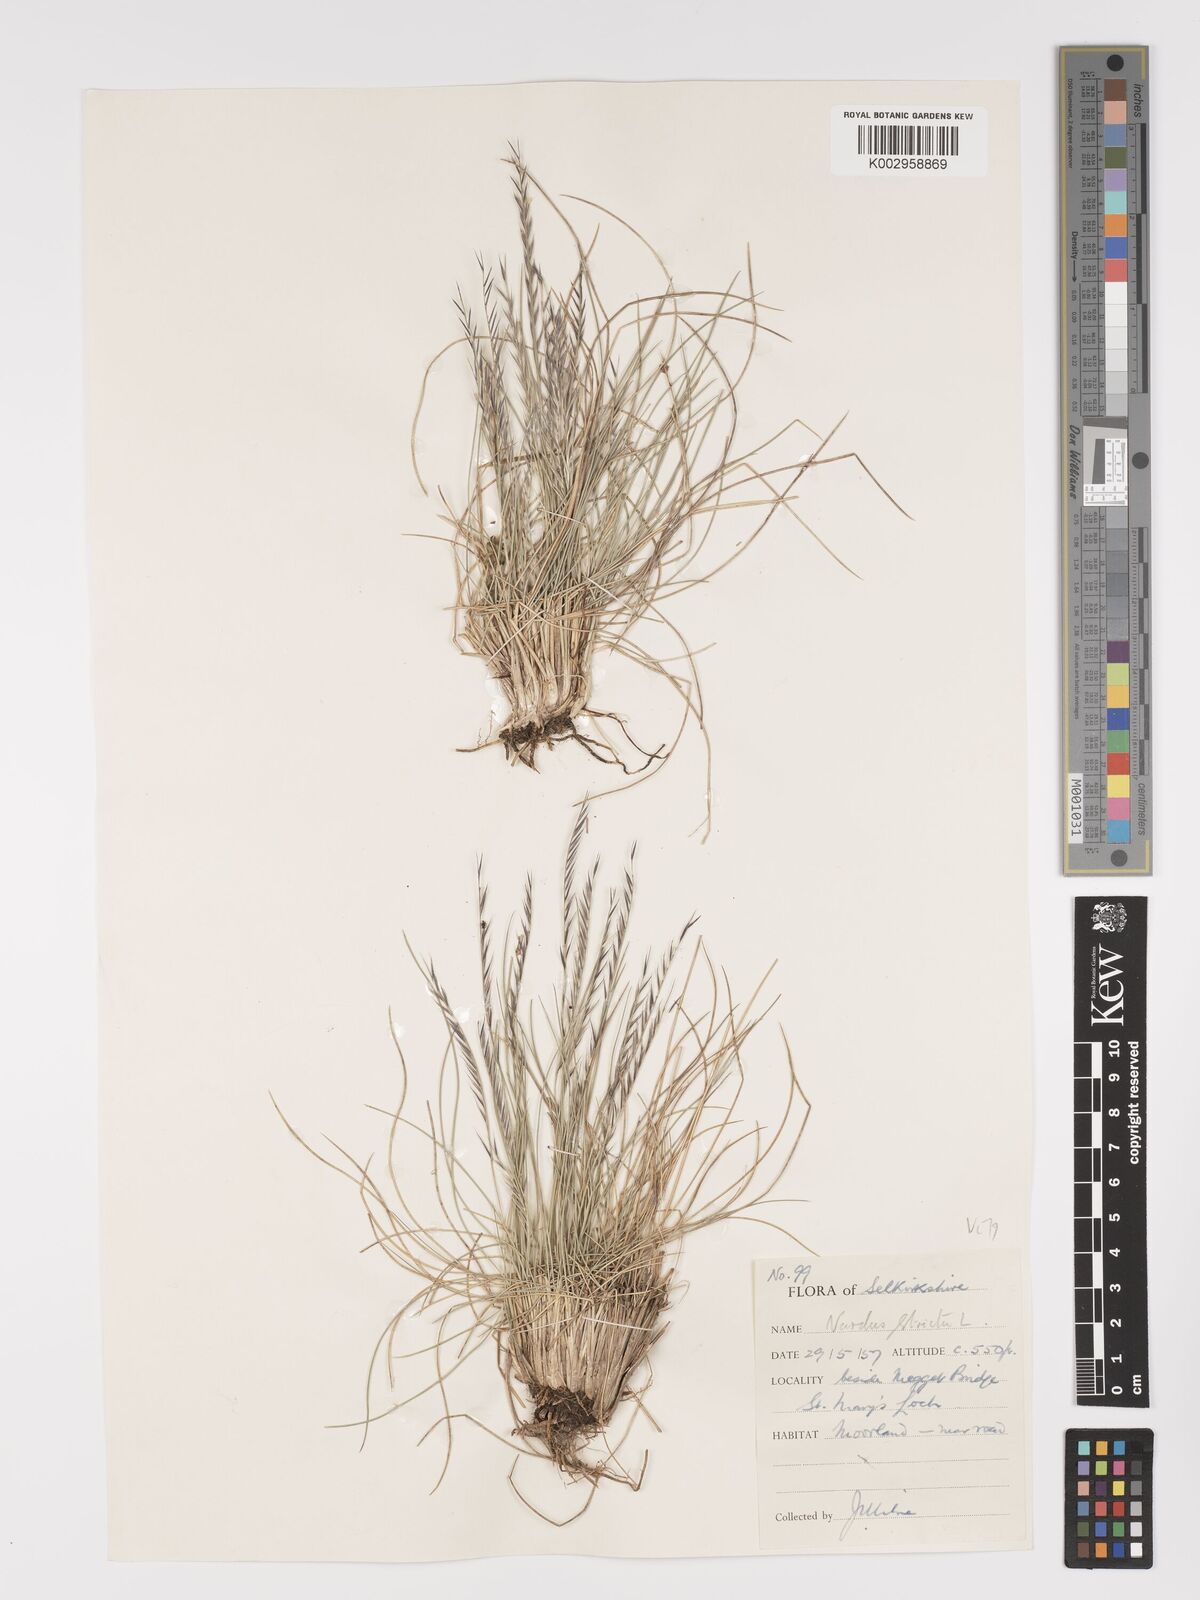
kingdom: Plantae
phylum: Tracheophyta
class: Liliopsida
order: Poales
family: Poaceae
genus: Nardus
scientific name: Nardus stricta
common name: Mat-grass
